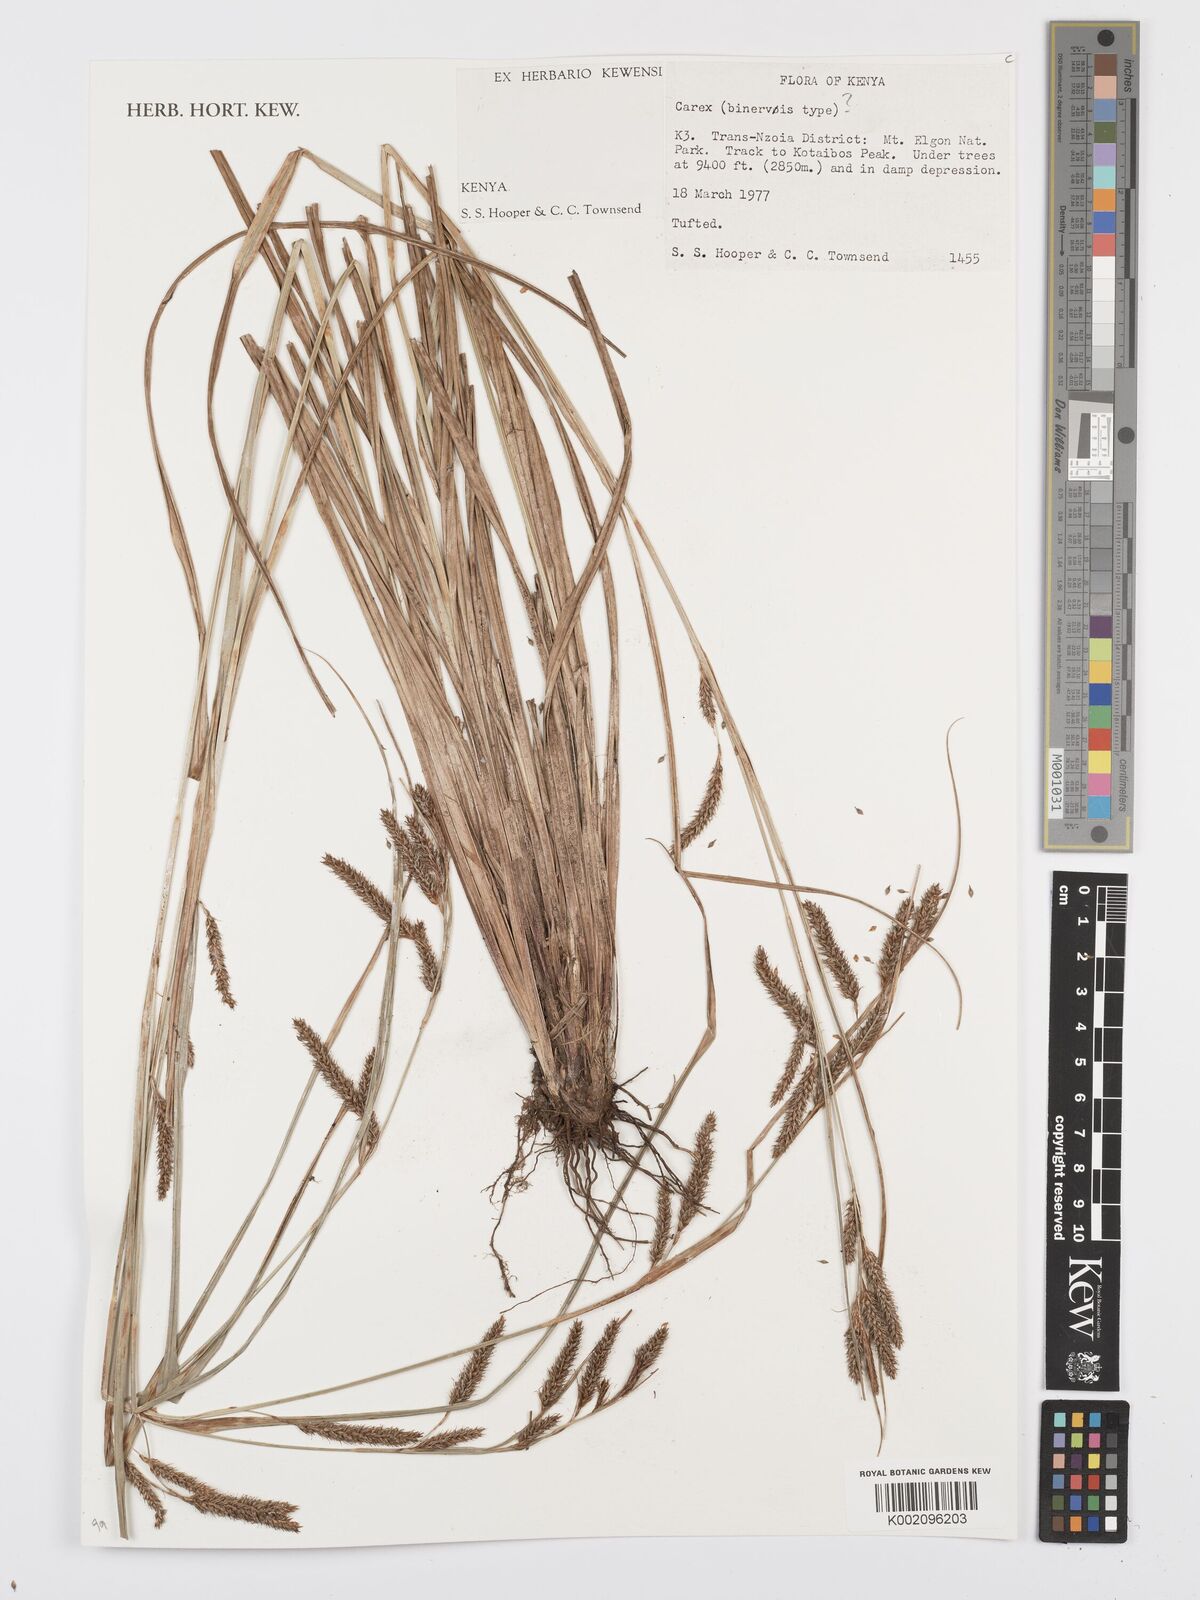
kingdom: Plantae
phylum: Tracheophyta
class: Liliopsida
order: Poales
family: Cyperaceae
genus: Carex
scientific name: Carex
